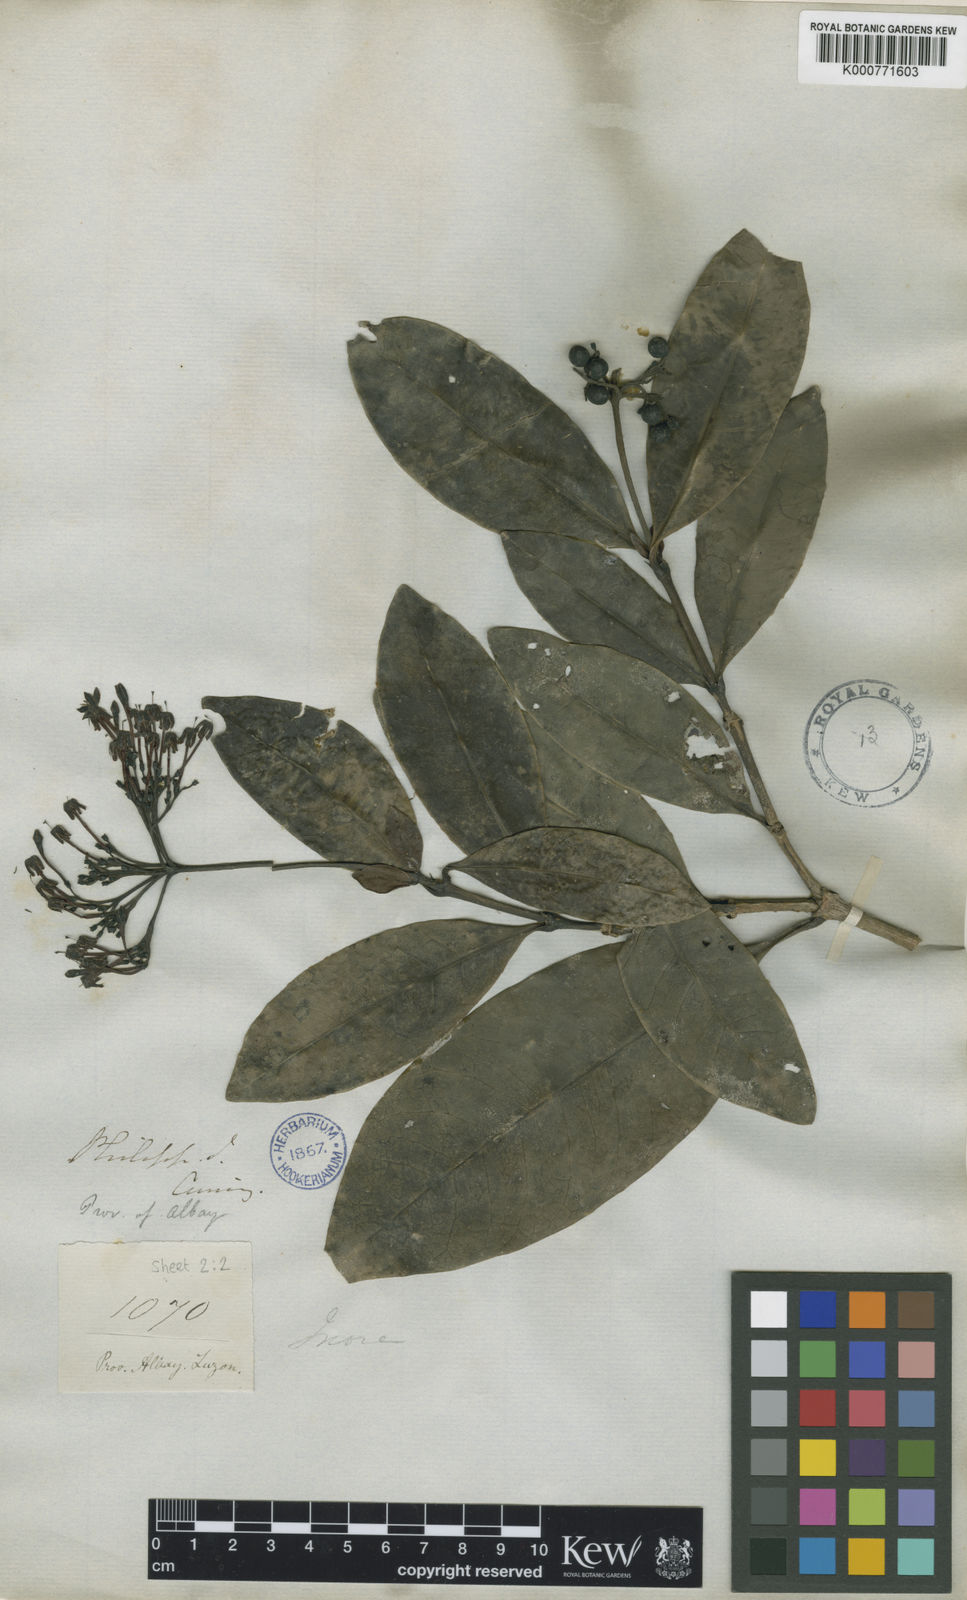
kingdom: Plantae
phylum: Tracheophyta
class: Magnoliopsida
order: Gentianales
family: Rubiaceae
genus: Ixora
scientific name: Ixora
